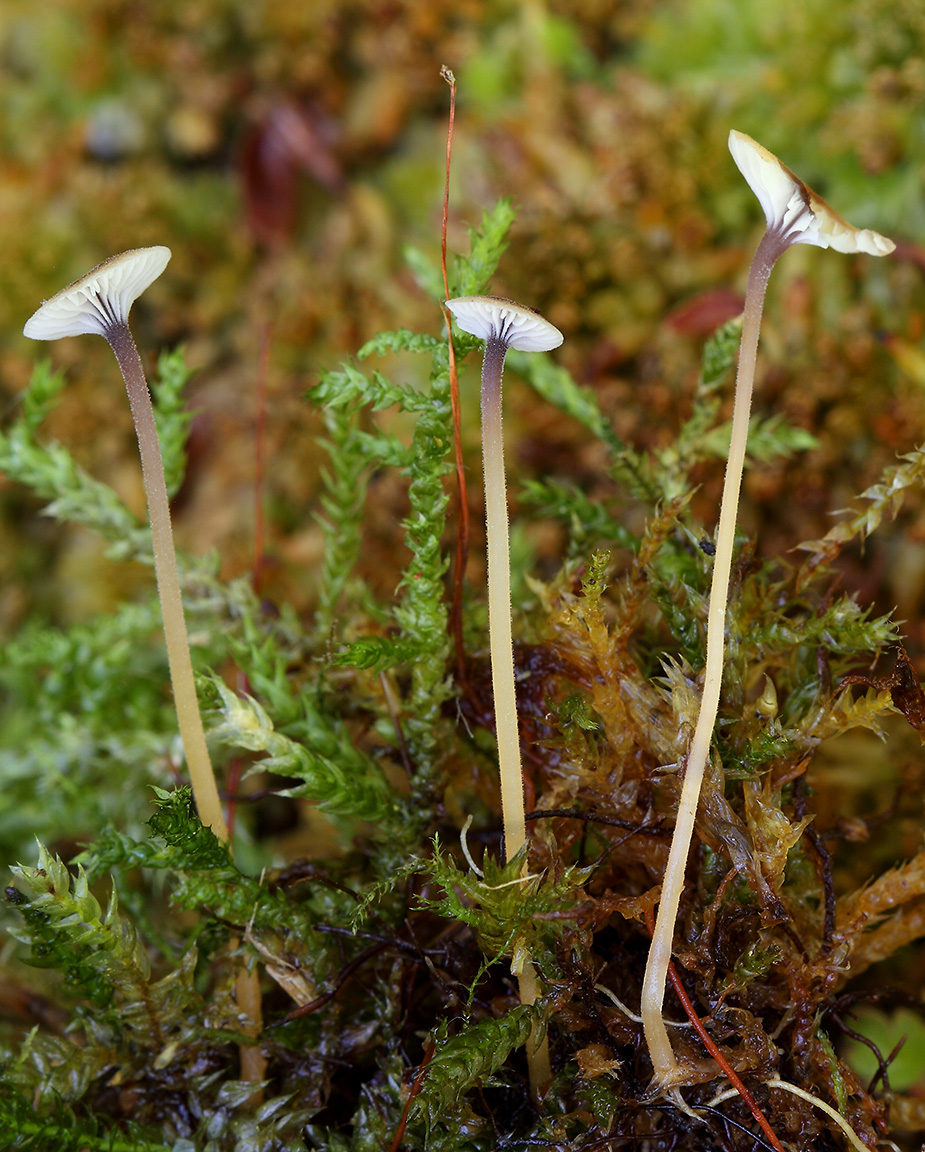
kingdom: Fungi
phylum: Basidiomycota
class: Agaricomycetes
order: Hymenochaetales
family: Rickenellaceae
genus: Rickenella
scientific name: Rickenella swartzii
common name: finstokket mosnavlehat
